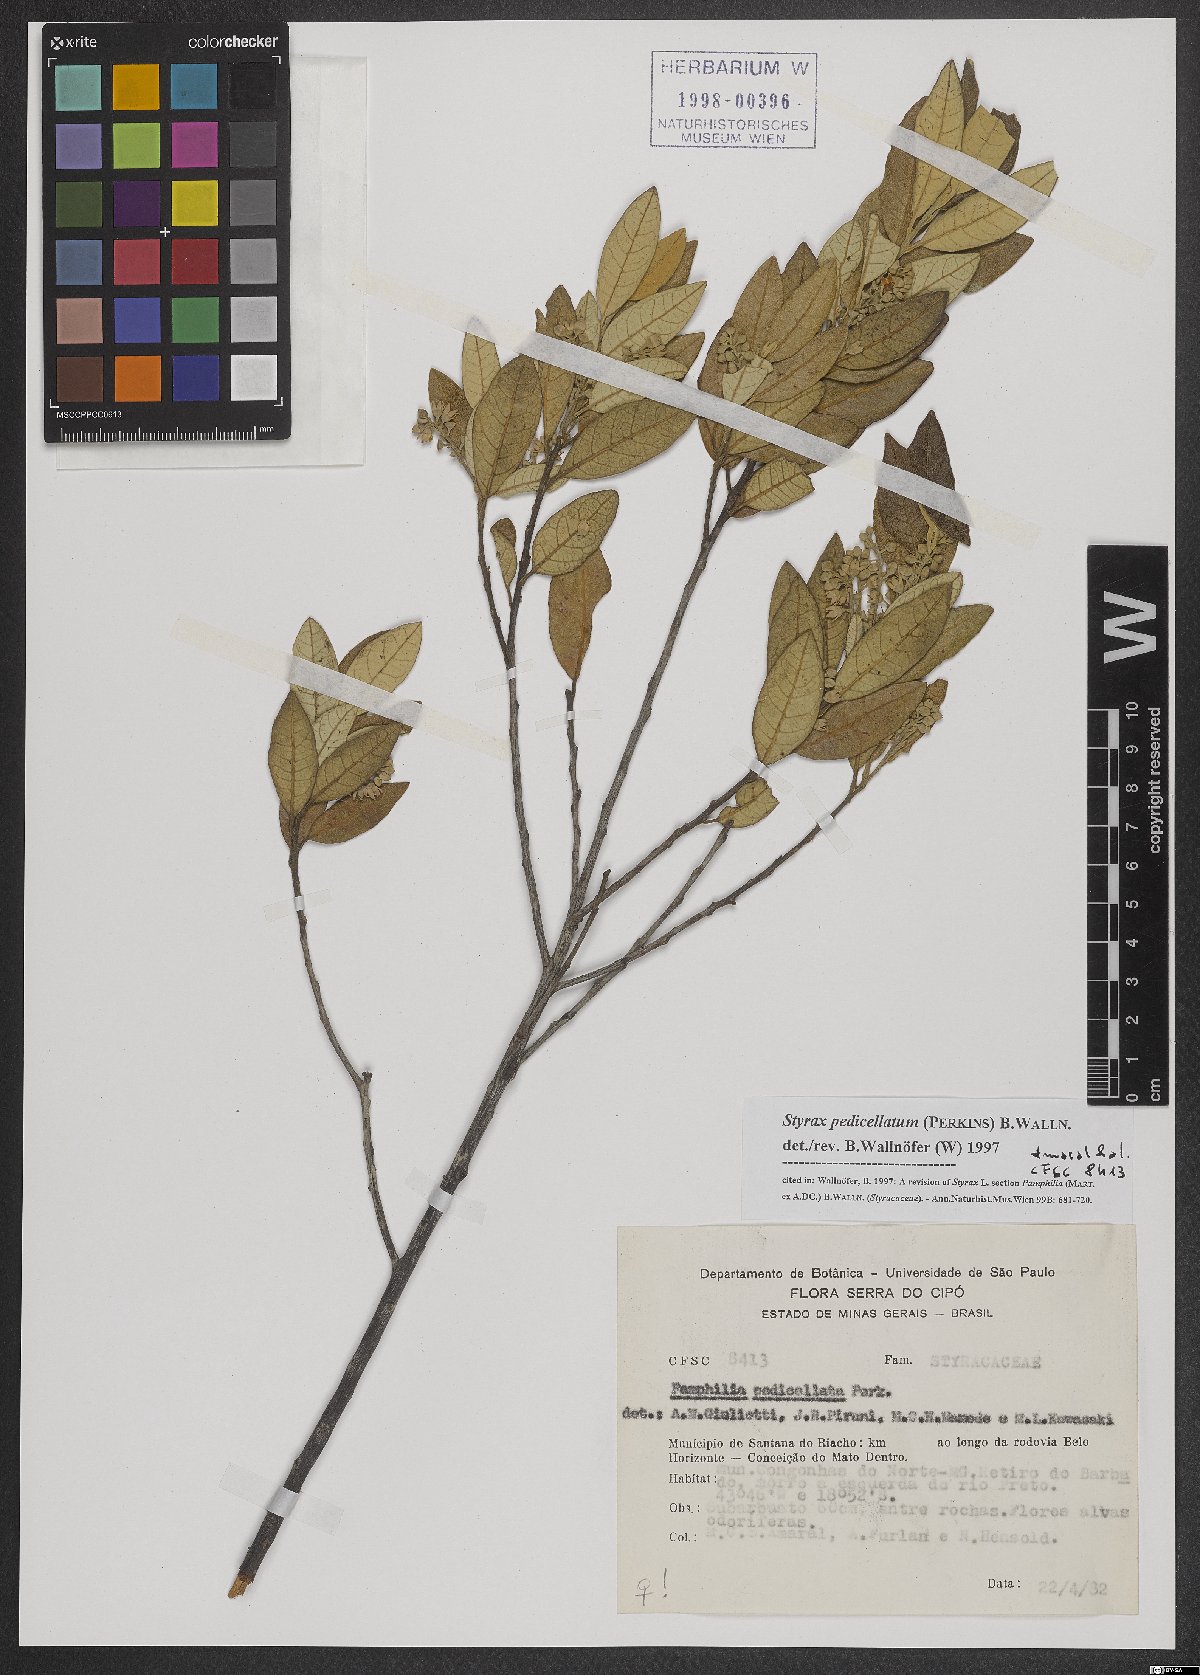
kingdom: Plantae
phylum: Tracheophyta
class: Magnoliopsida
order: Ericales
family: Styracaceae
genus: Styrax
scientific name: Styrax pedicellatus
